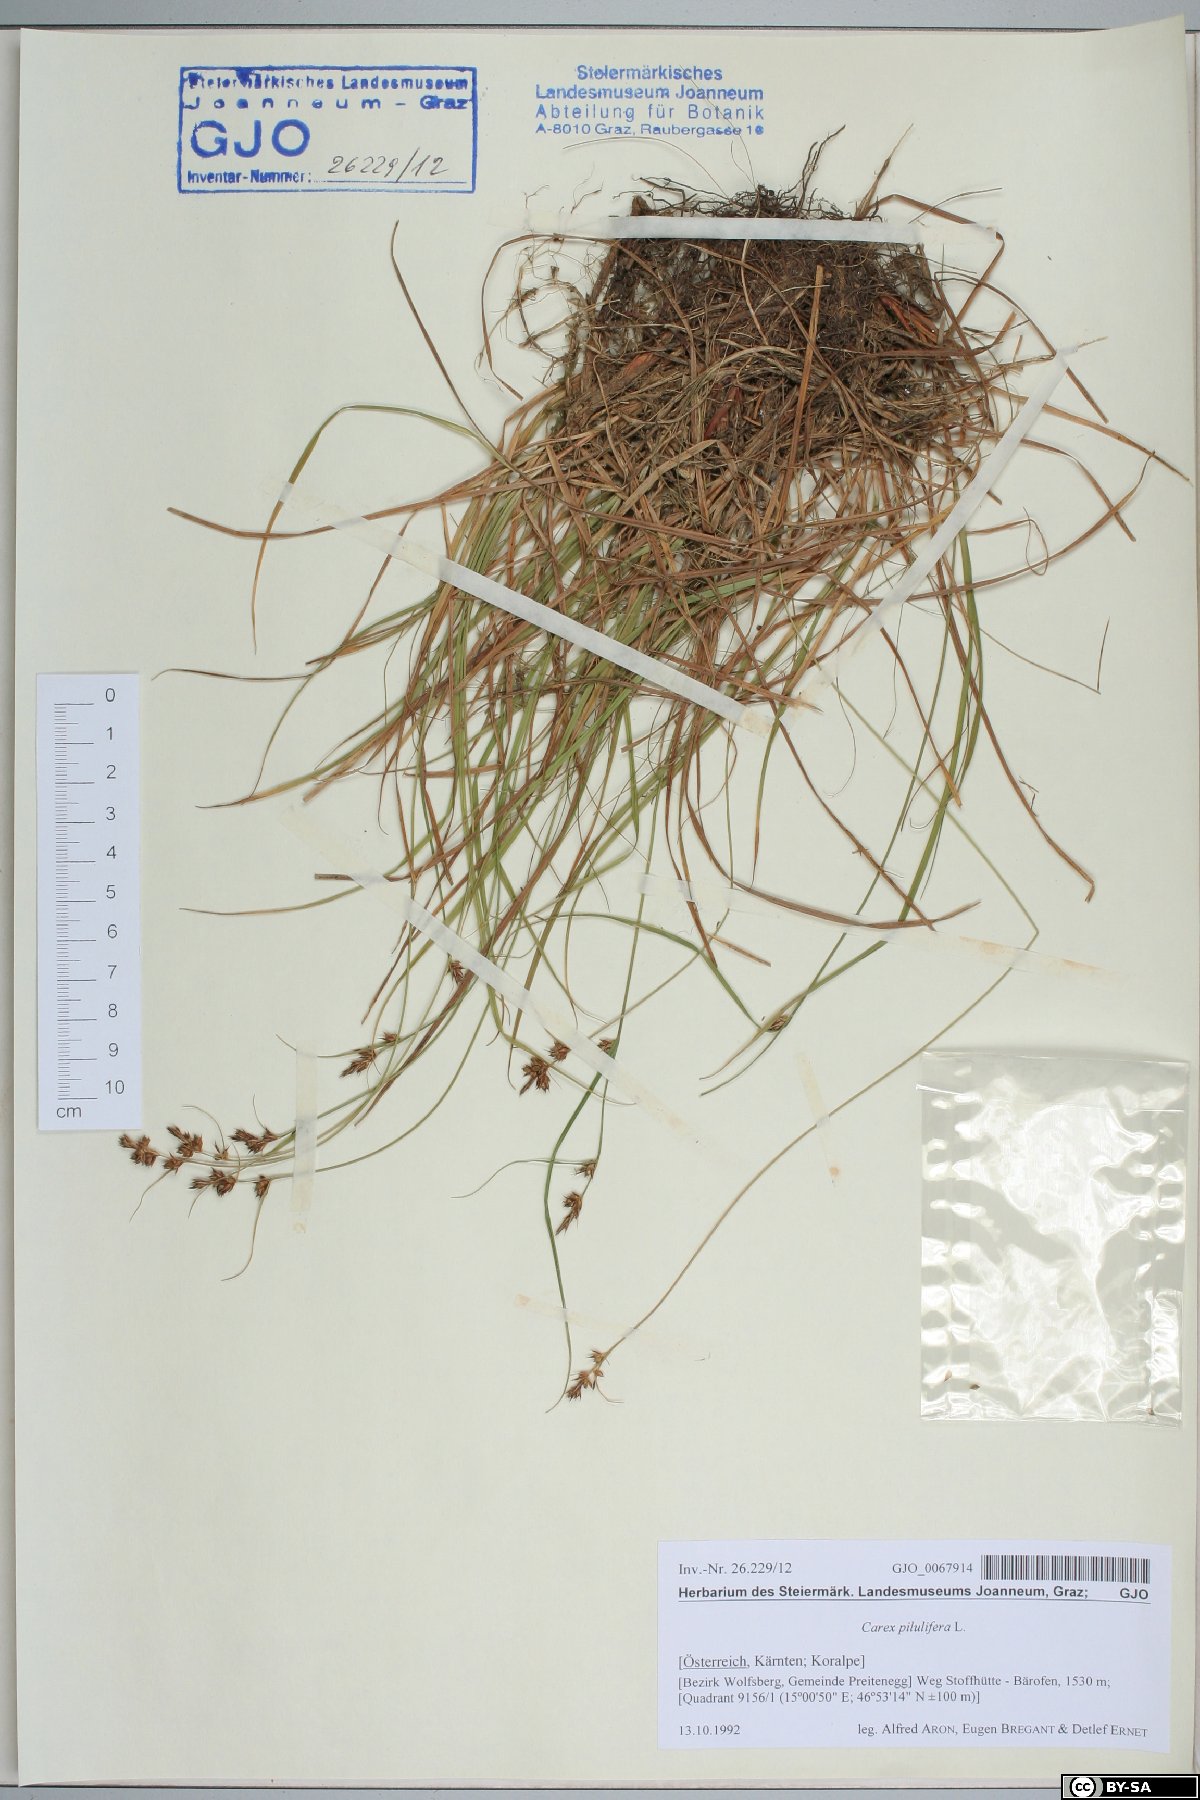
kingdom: Plantae
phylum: Tracheophyta
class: Liliopsida
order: Poales
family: Cyperaceae
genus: Carex
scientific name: Carex pilulifera
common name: Pill sedge
